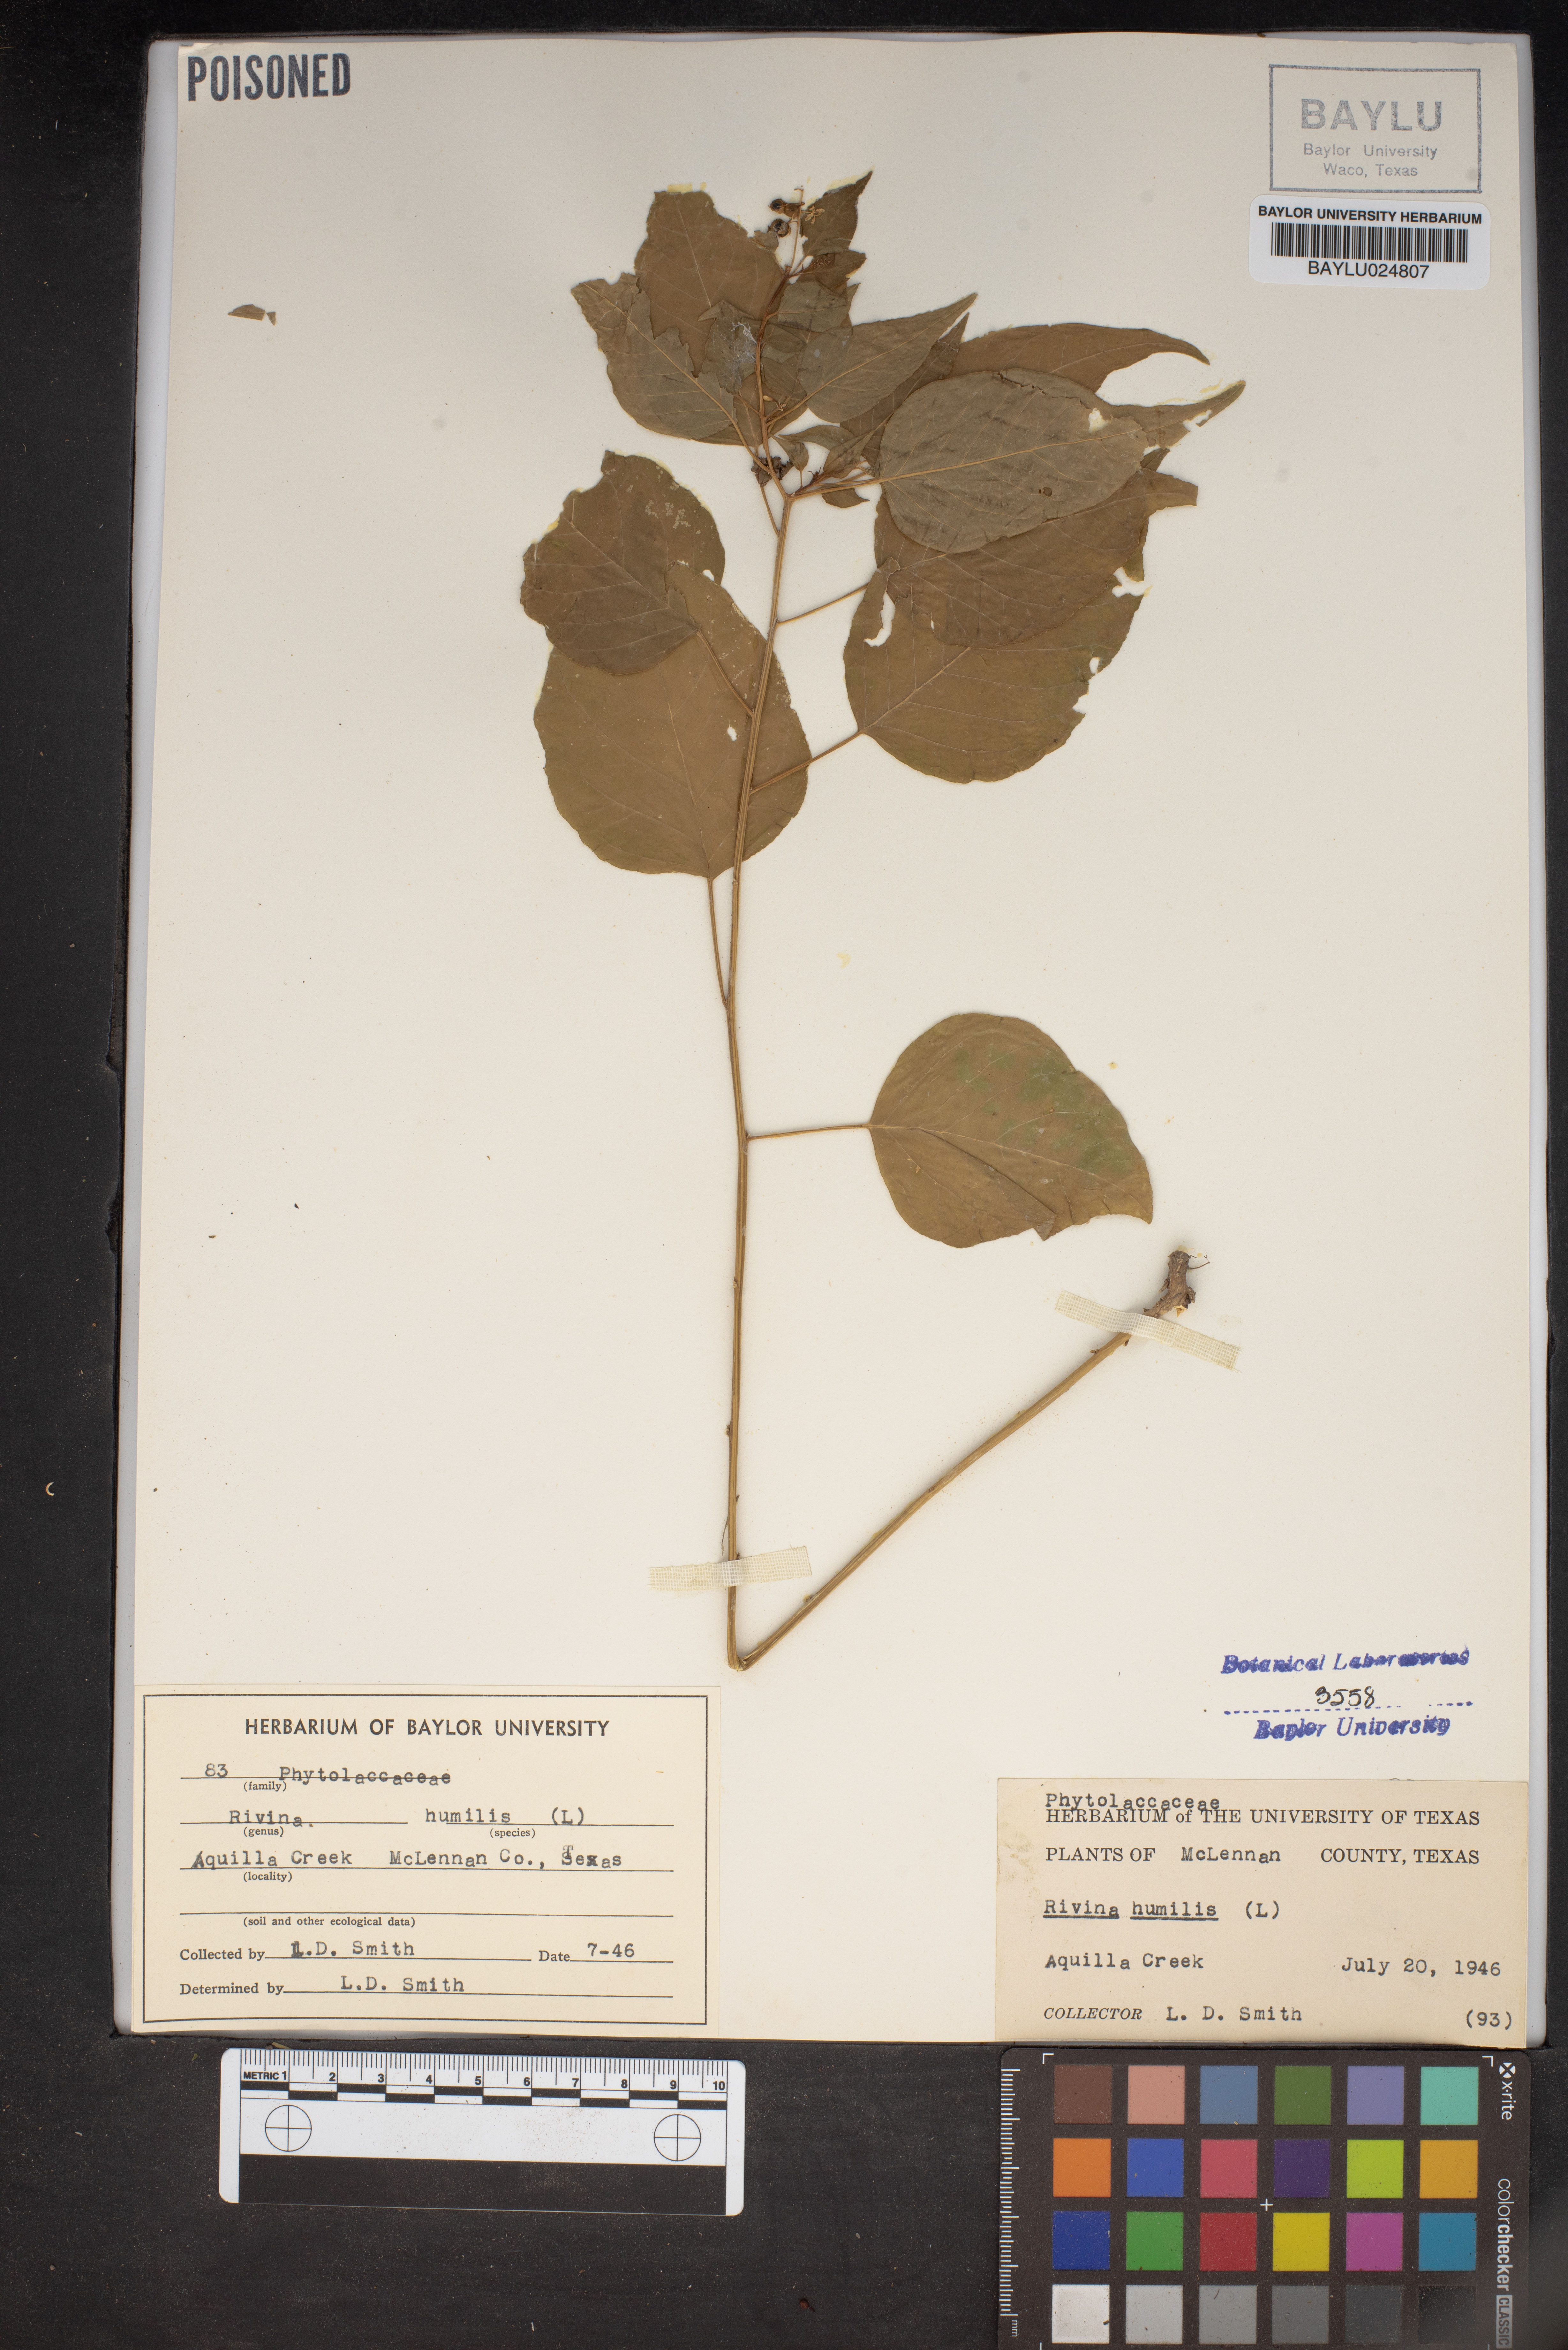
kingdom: Plantae
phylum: Tracheophyta
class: Magnoliopsida
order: Caryophyllales
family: Phytolaccaceae
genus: Rivina
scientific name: Rivina humilis
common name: Rougeplant
